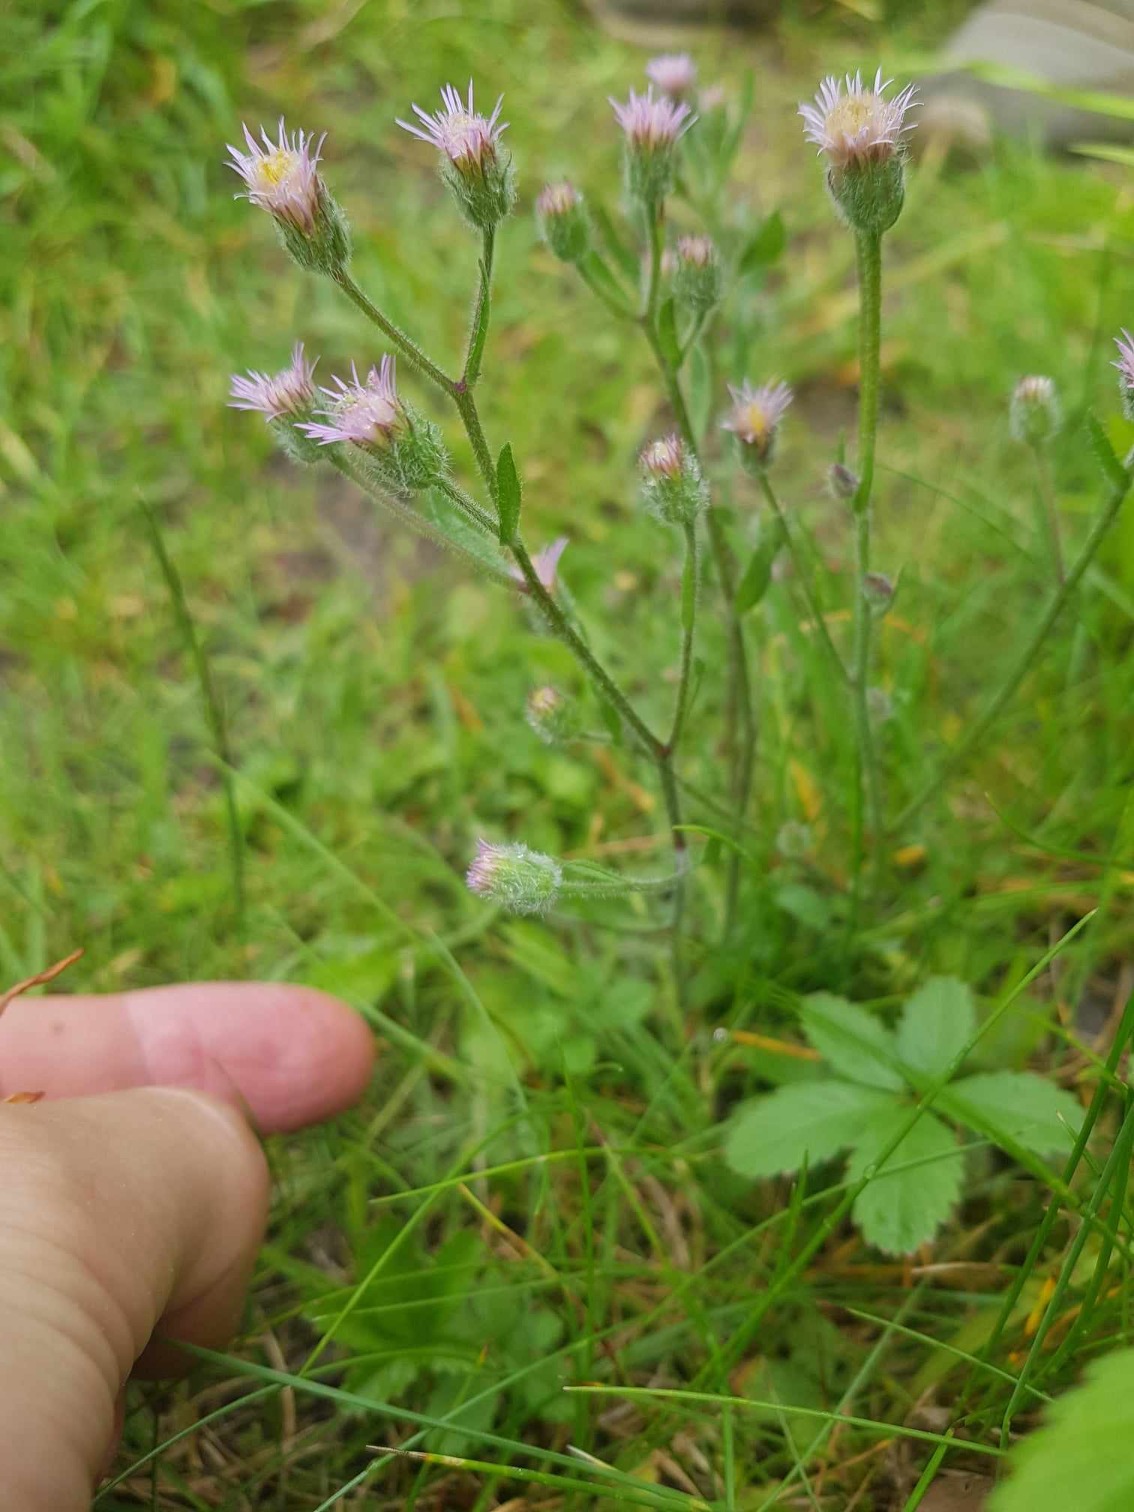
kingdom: Plantae
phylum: Tracheophyta
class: Magnoliopsida
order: Asterales
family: Asteraceae
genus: Erigeron
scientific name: Erigeron acris
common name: Bitter bakkestjerne
